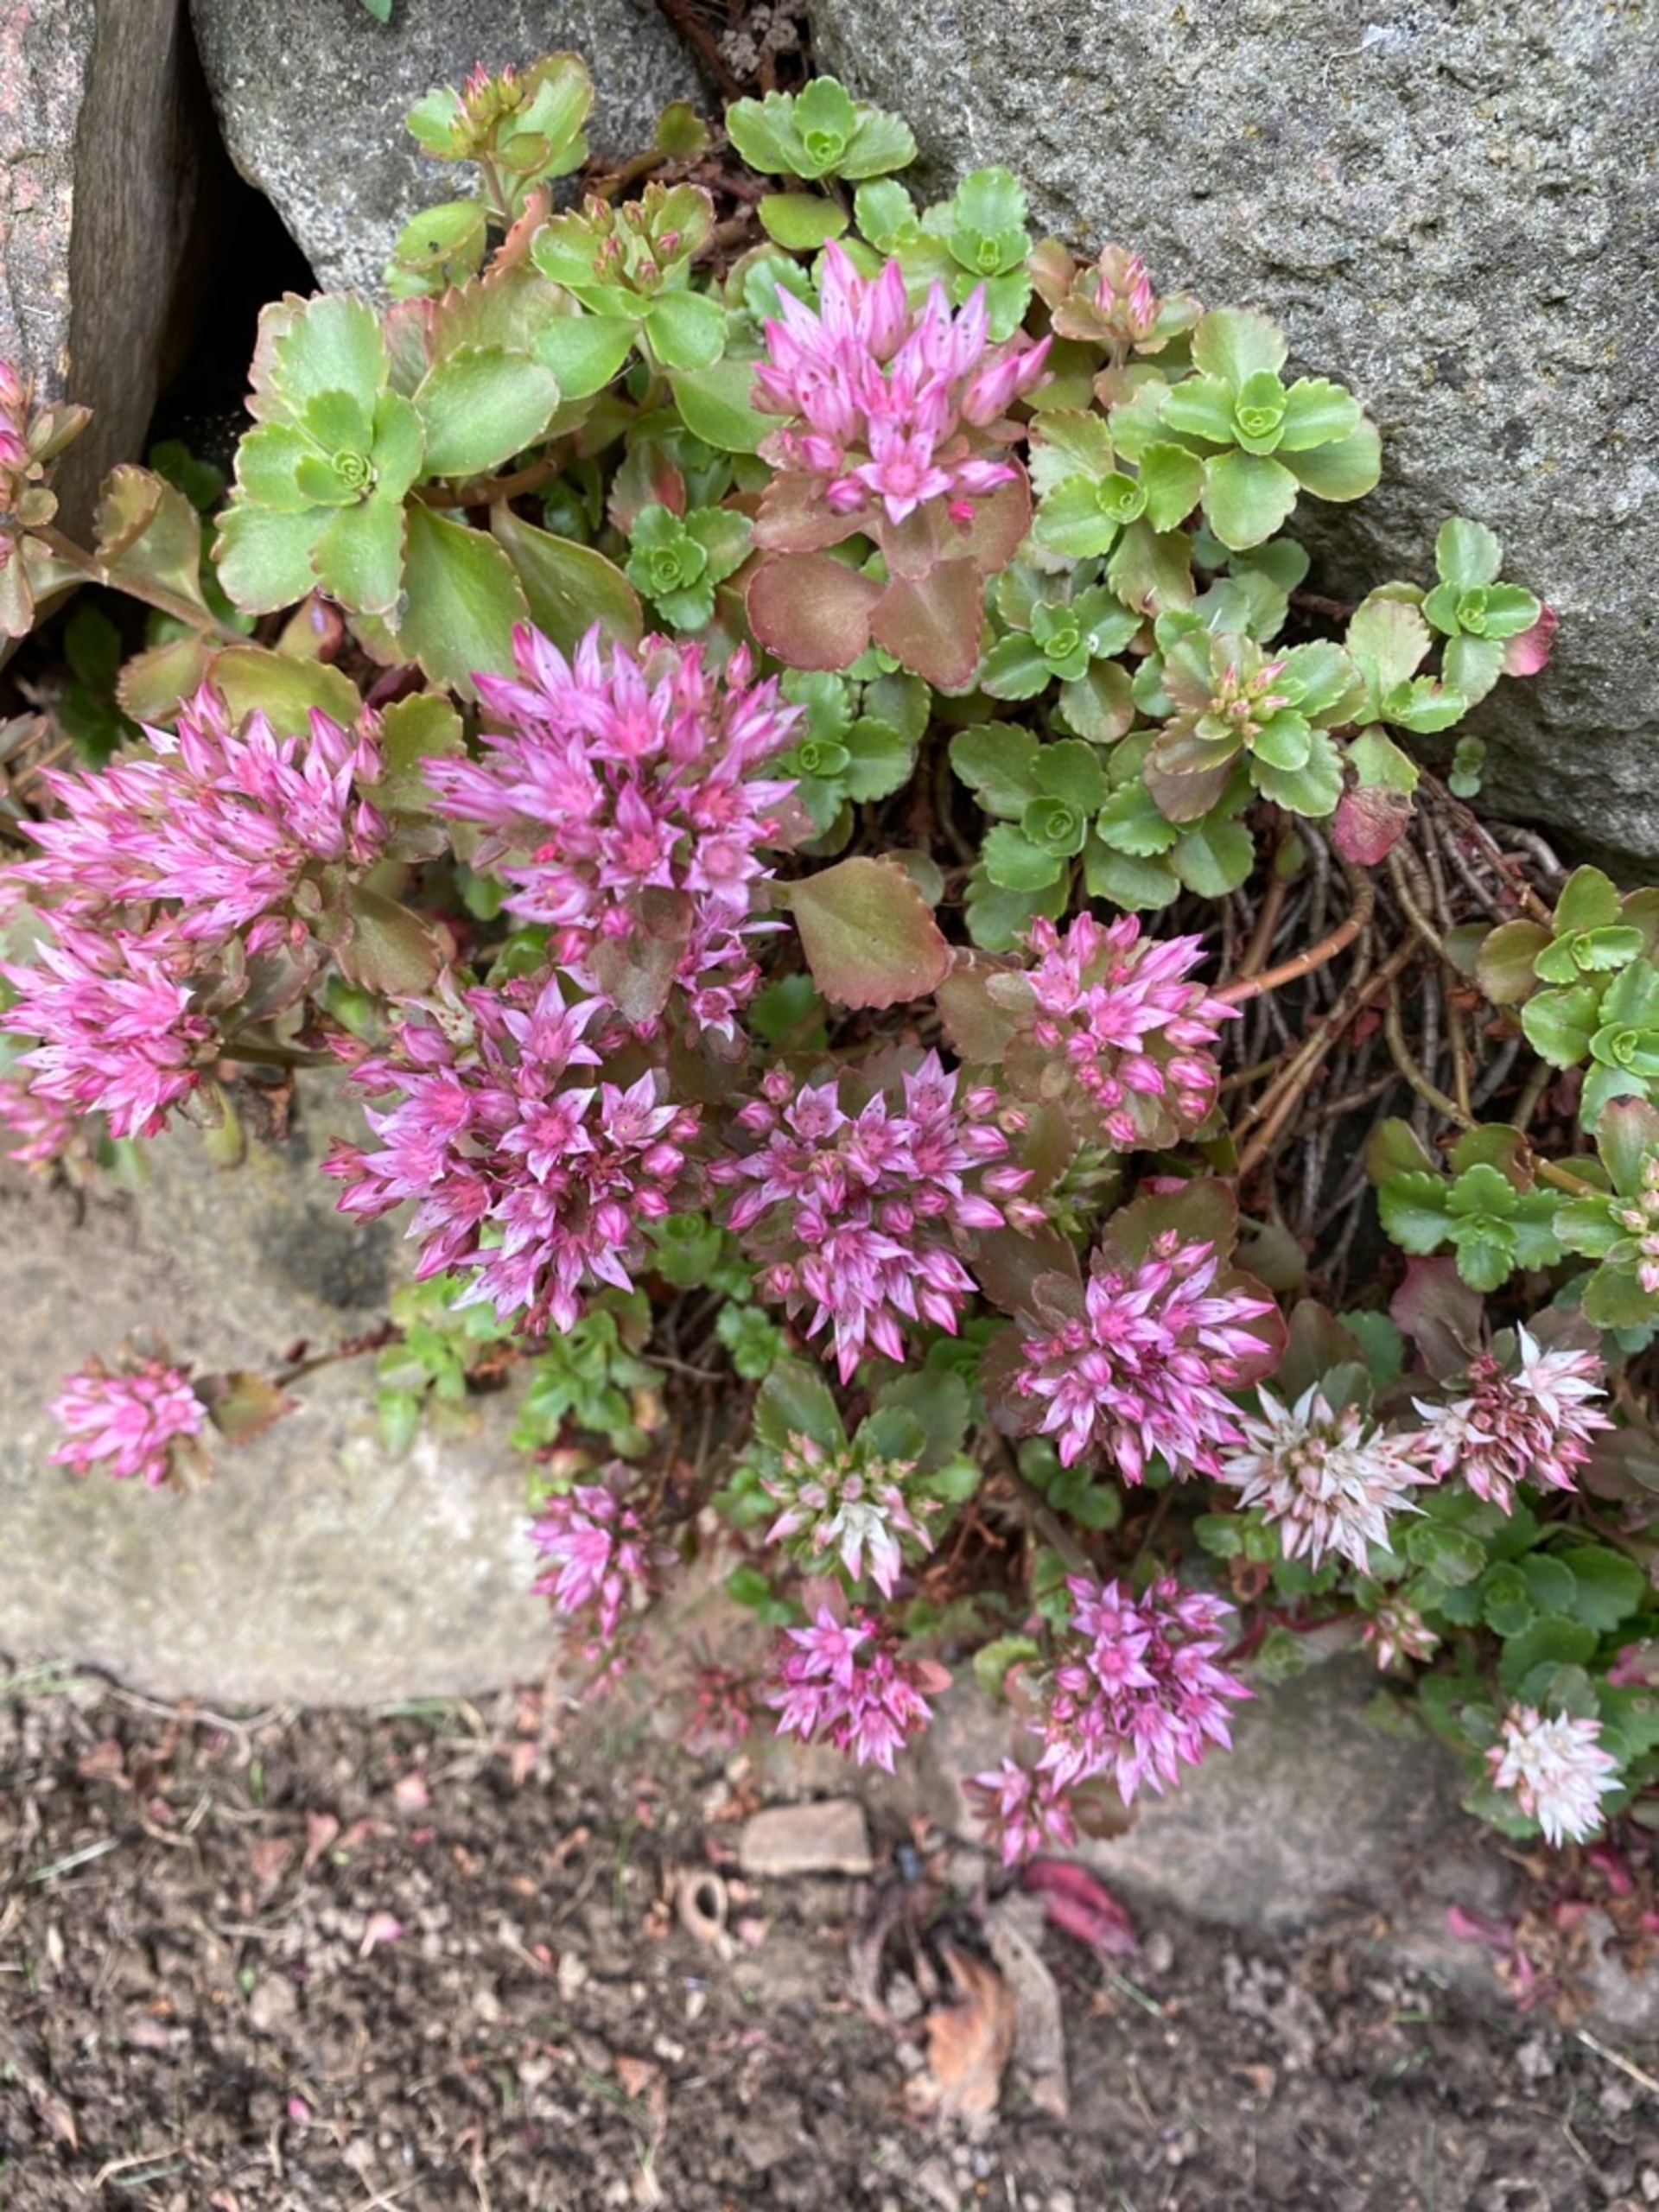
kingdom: Plantae
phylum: Tracheophyta
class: Magnoliopsida
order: Saxifragales
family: Crassulaceae
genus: Phedimus
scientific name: Phedimus spurius
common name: Rød stenurt
